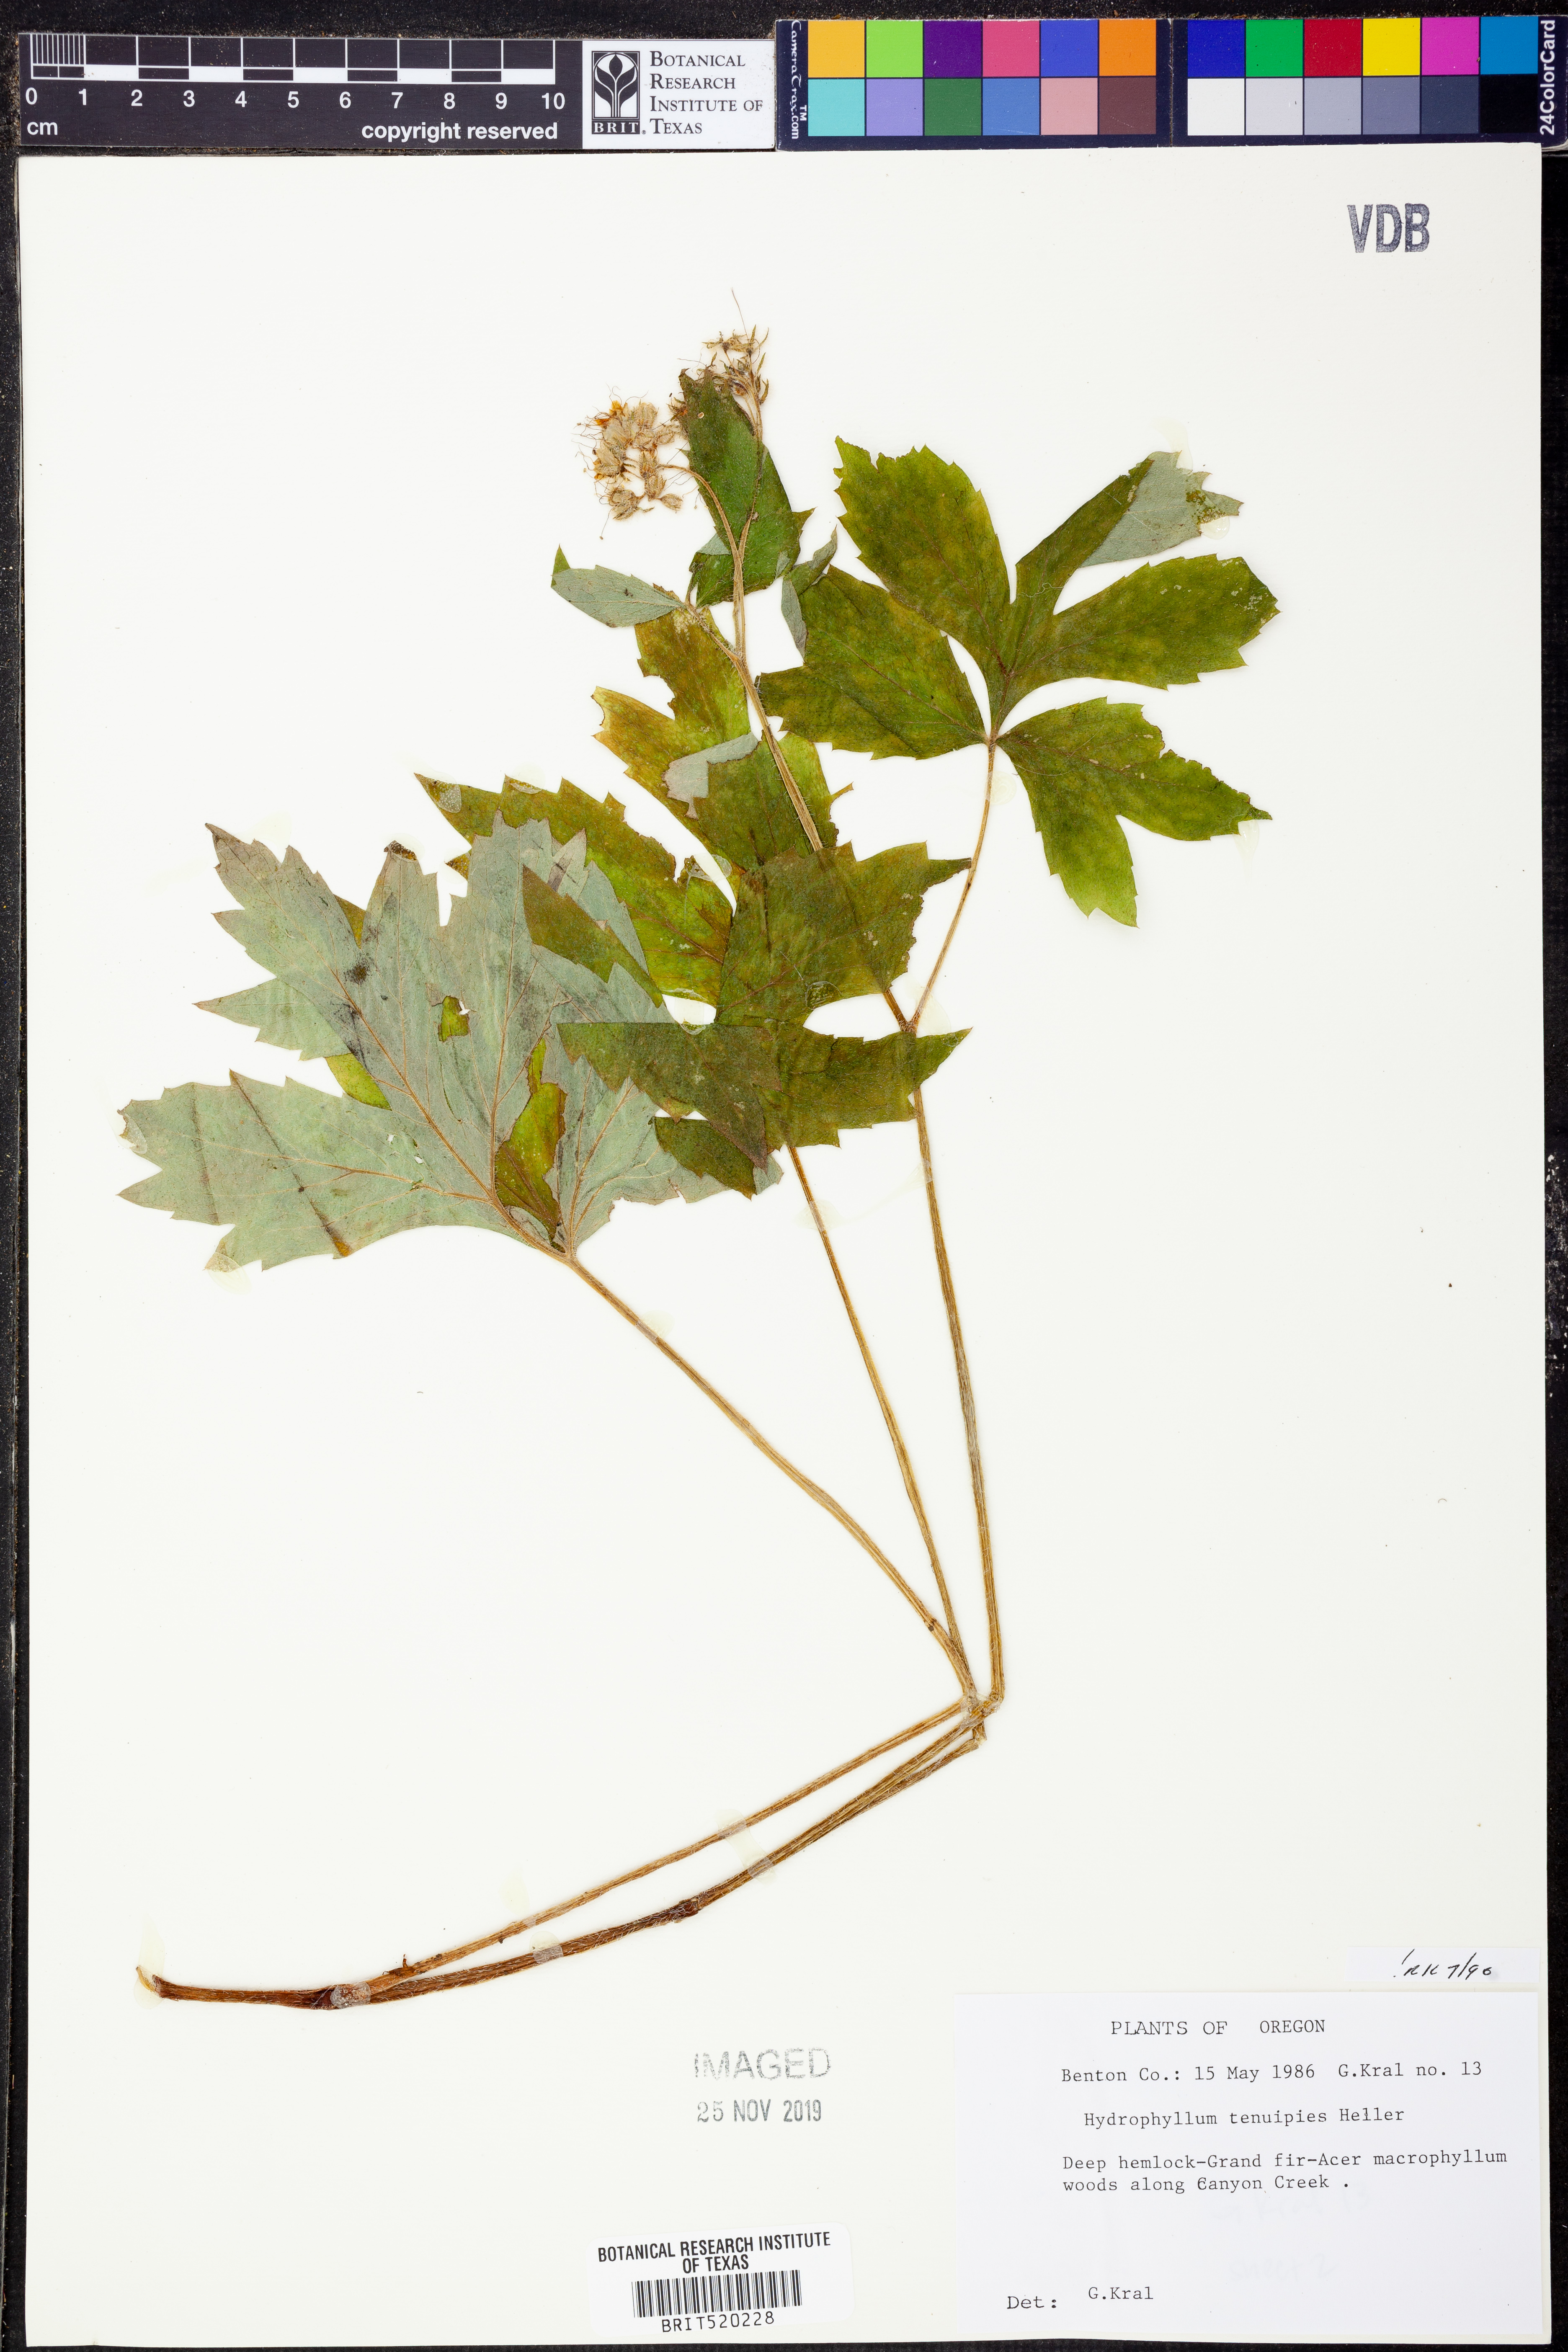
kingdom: Plantae
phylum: Tracheophyta
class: Magnoliopsida
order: Boraginales
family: Hydrophyllaceae
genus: Hydrophyllum
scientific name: Hydrophyllum tenuipes
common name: Pacific waterleaf
